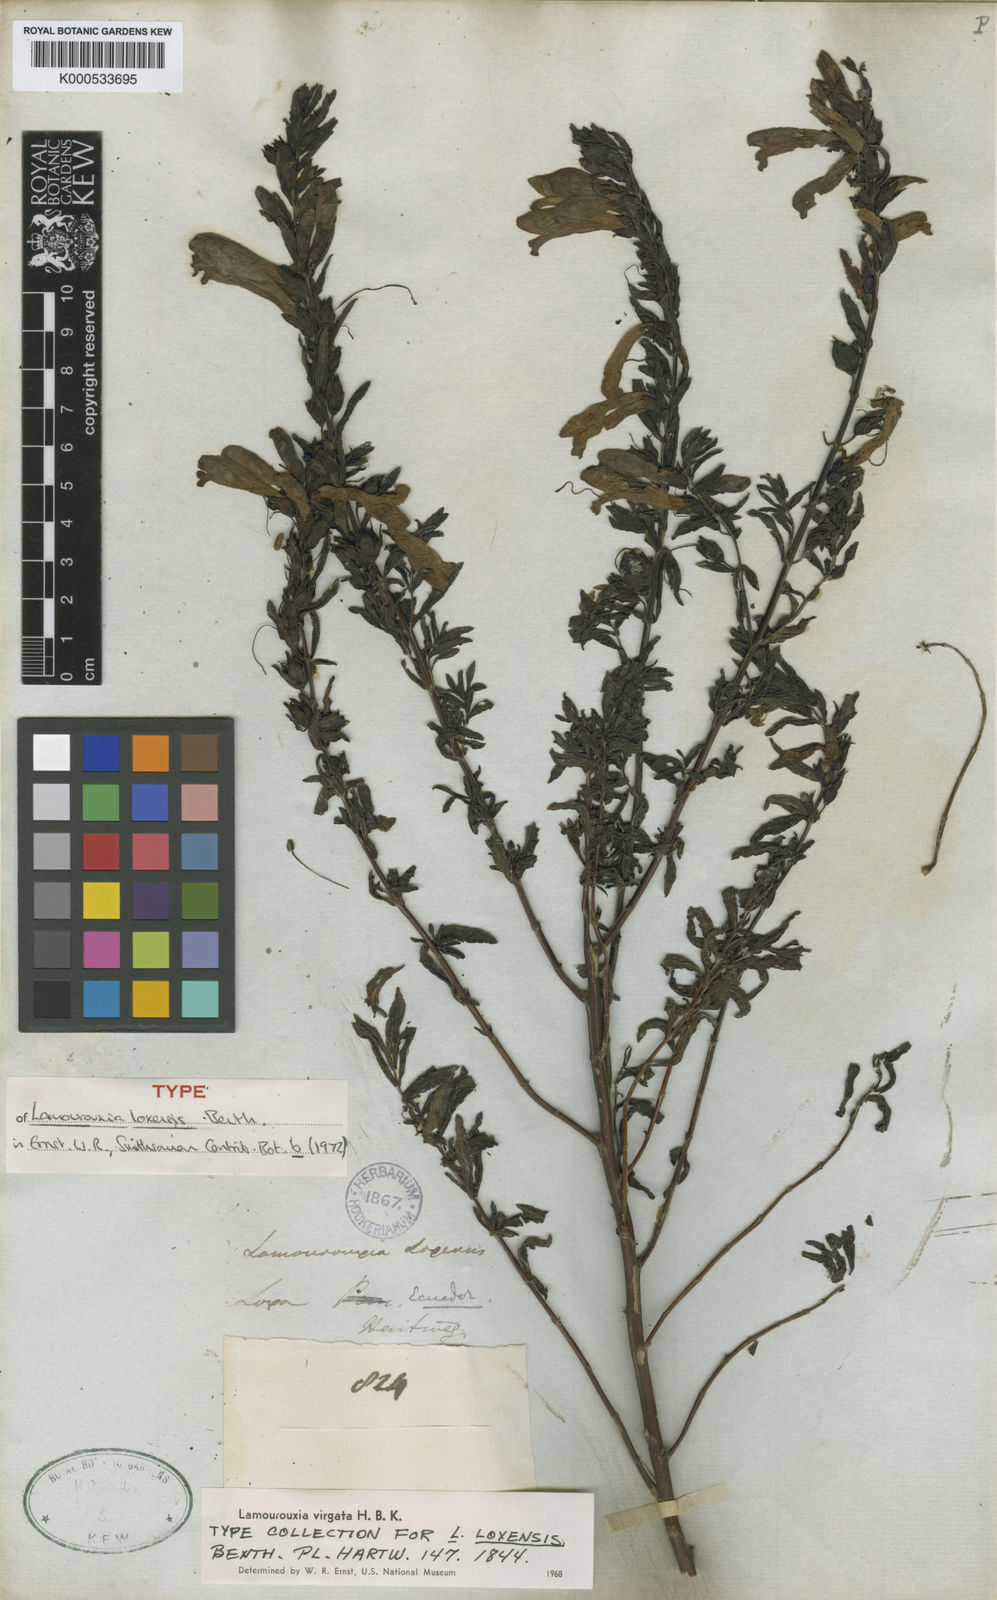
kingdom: Plantae
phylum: Tracheophyta
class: Magnoliopsida
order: Lamiales
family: Orobanchaceae
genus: Lamourouxia
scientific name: Lamourouxia virgata
